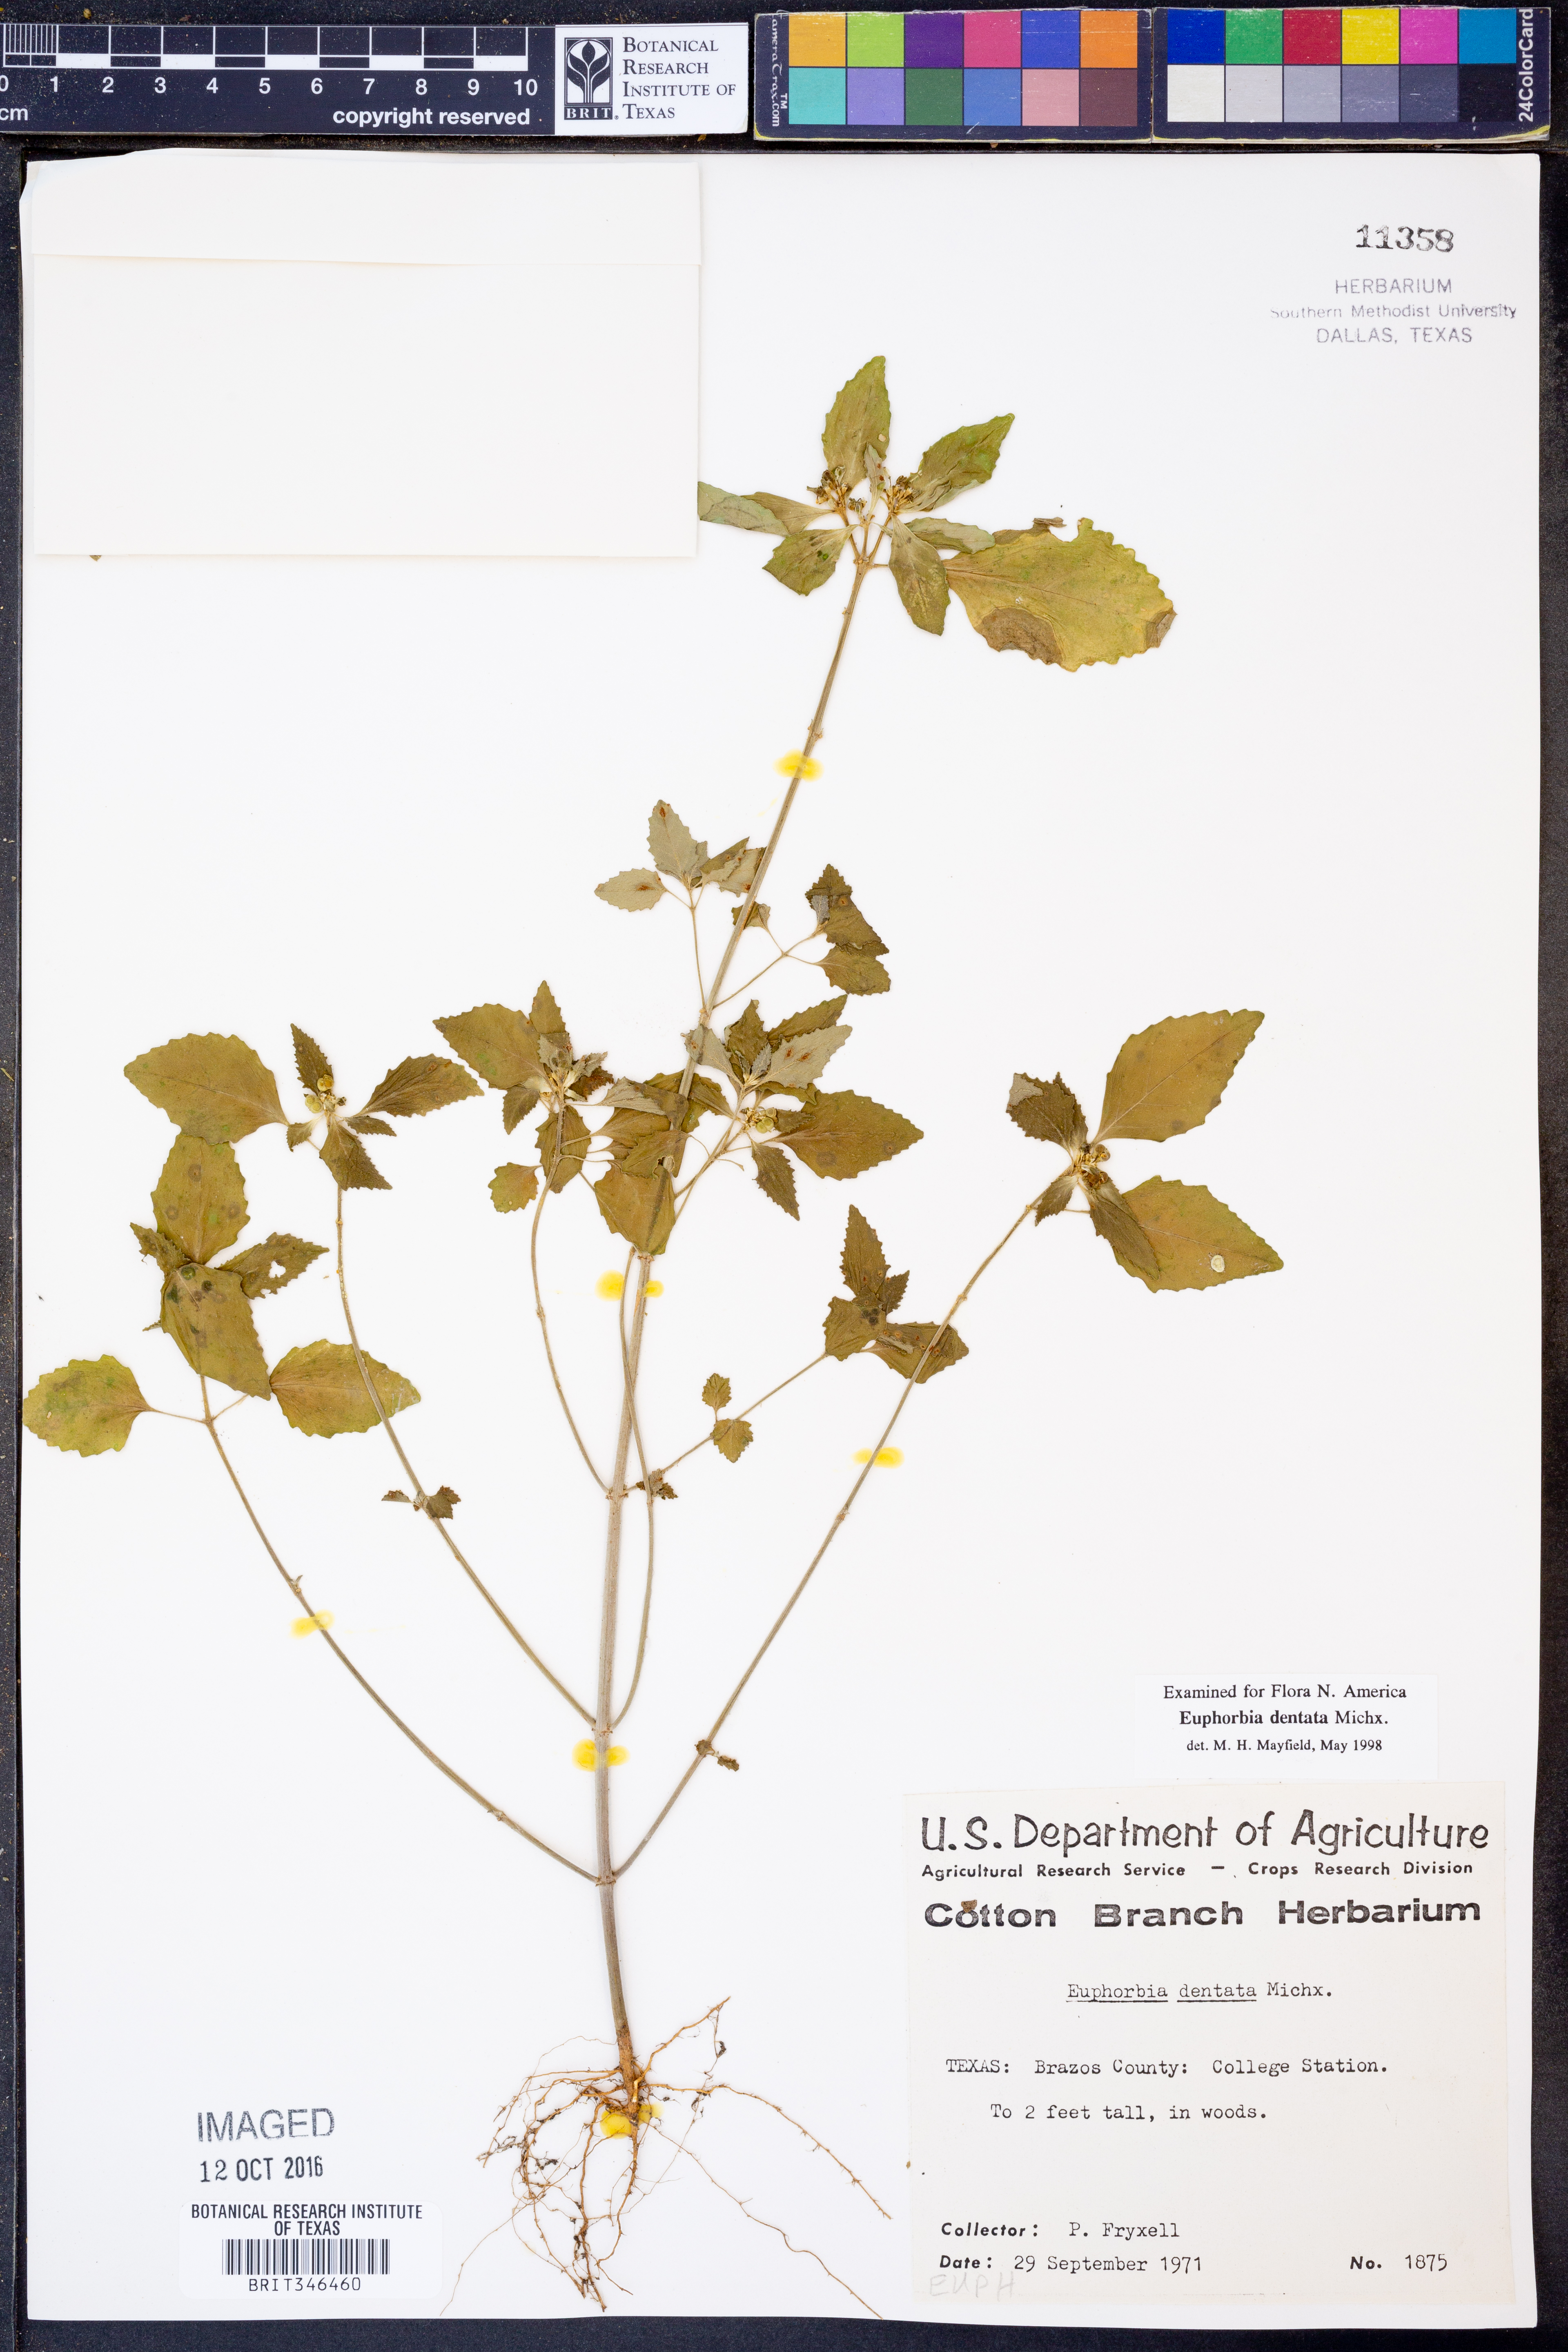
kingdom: Plantae
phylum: Tracheophyta
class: Magnoliopsida
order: Malpighiales
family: Euphorbiaceae
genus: Euphorbia
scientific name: Euphorbia dentata
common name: Dentate spurge
